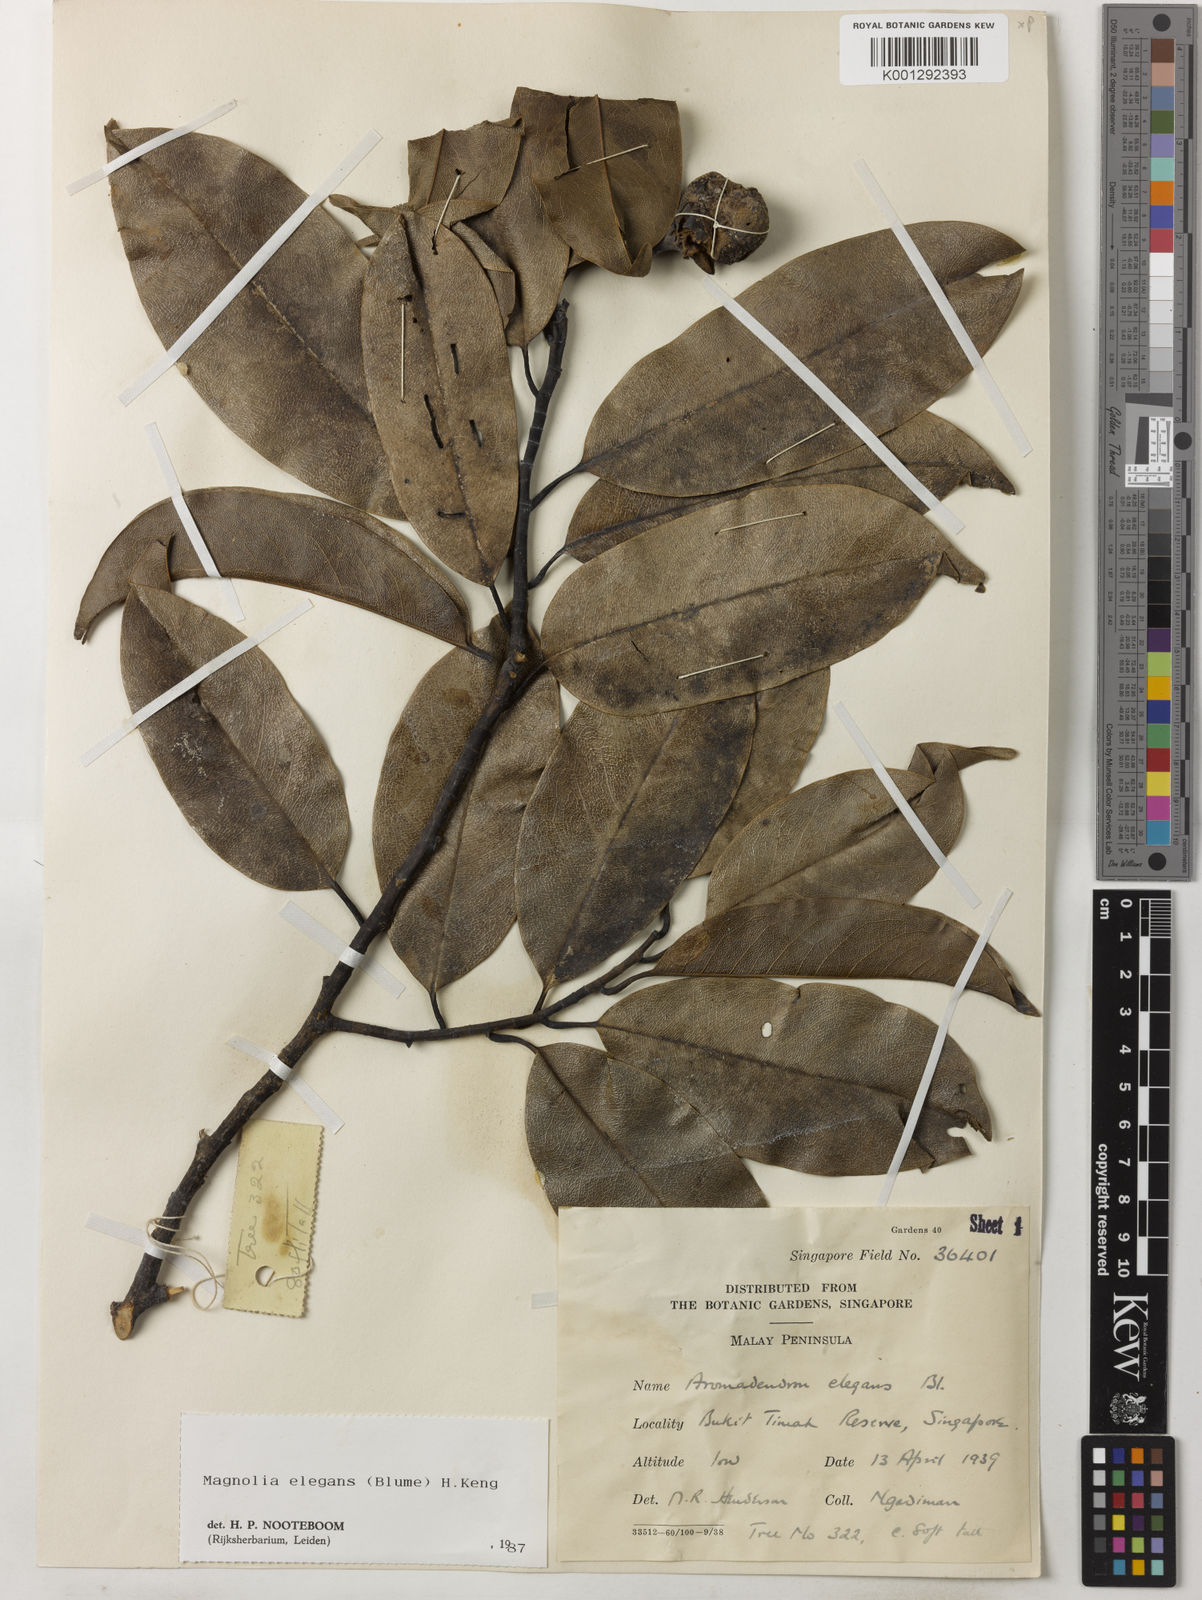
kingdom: Plantae
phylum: Tracheophyta
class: Magnoliopsida
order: Magnoliales
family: Magnoliaceae
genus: Magnolia
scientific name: Magnolia elegans
